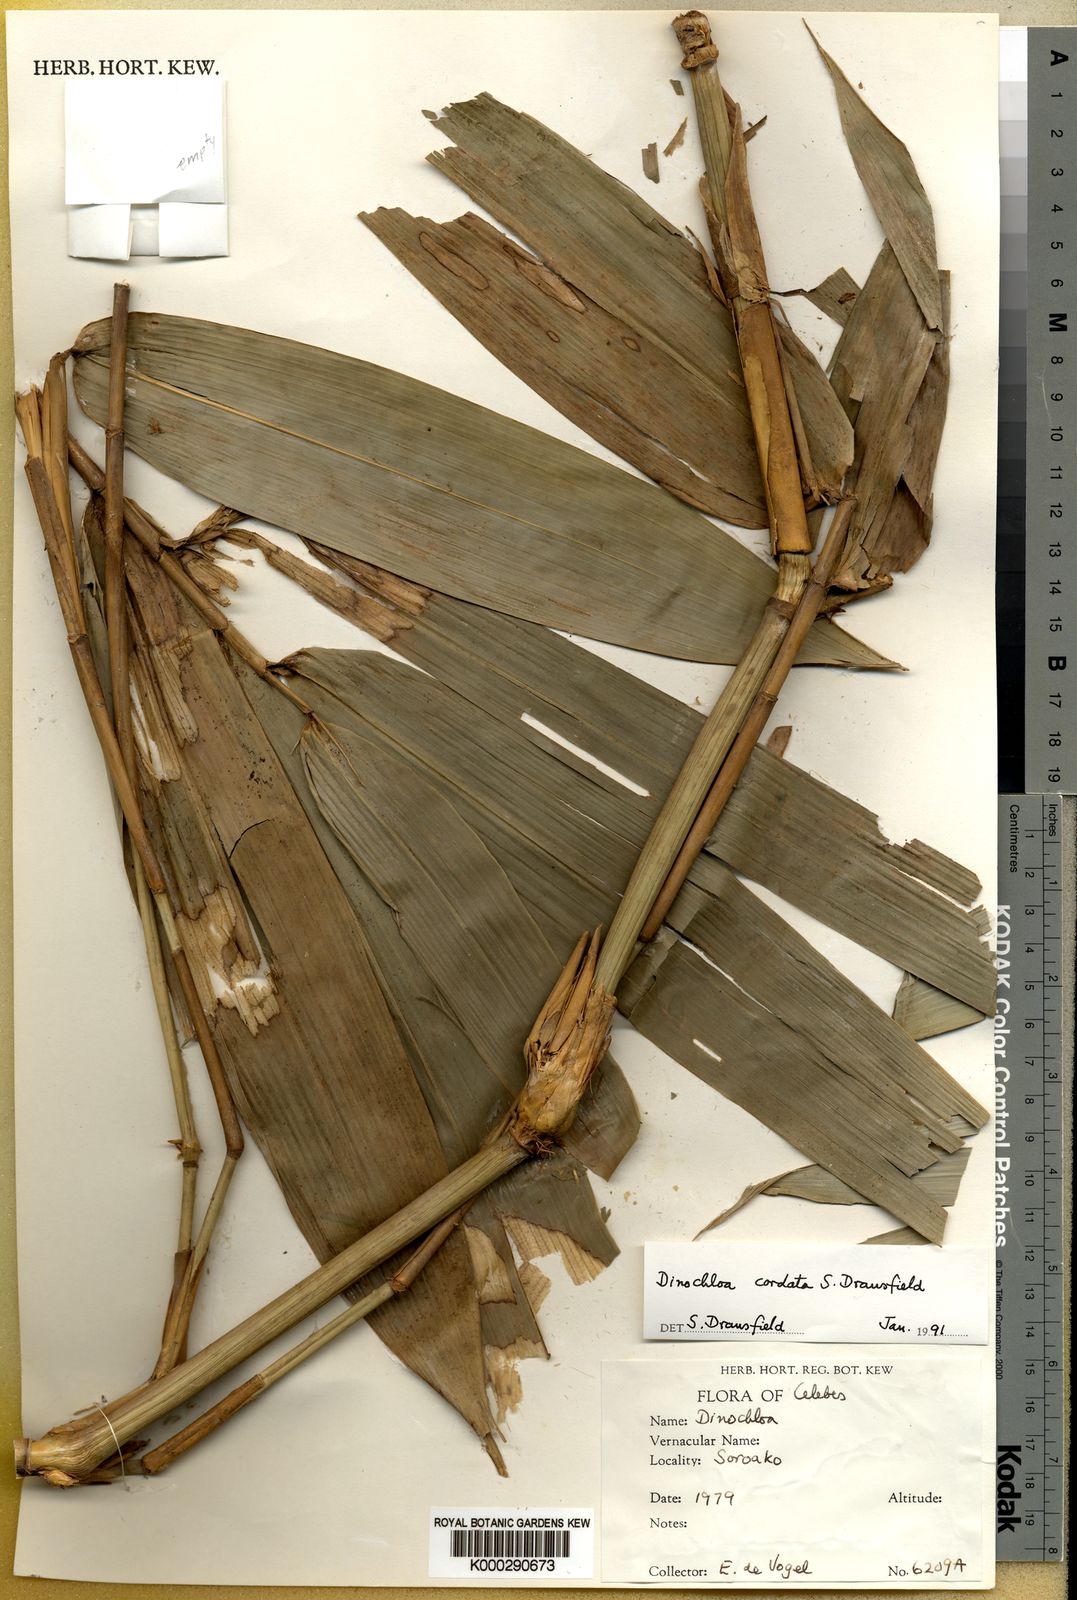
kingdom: Plantae
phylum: Tracheophyta
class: Liliopsida
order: Poales
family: Poaceae
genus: Dinochloa
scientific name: Dinochloa cordata
